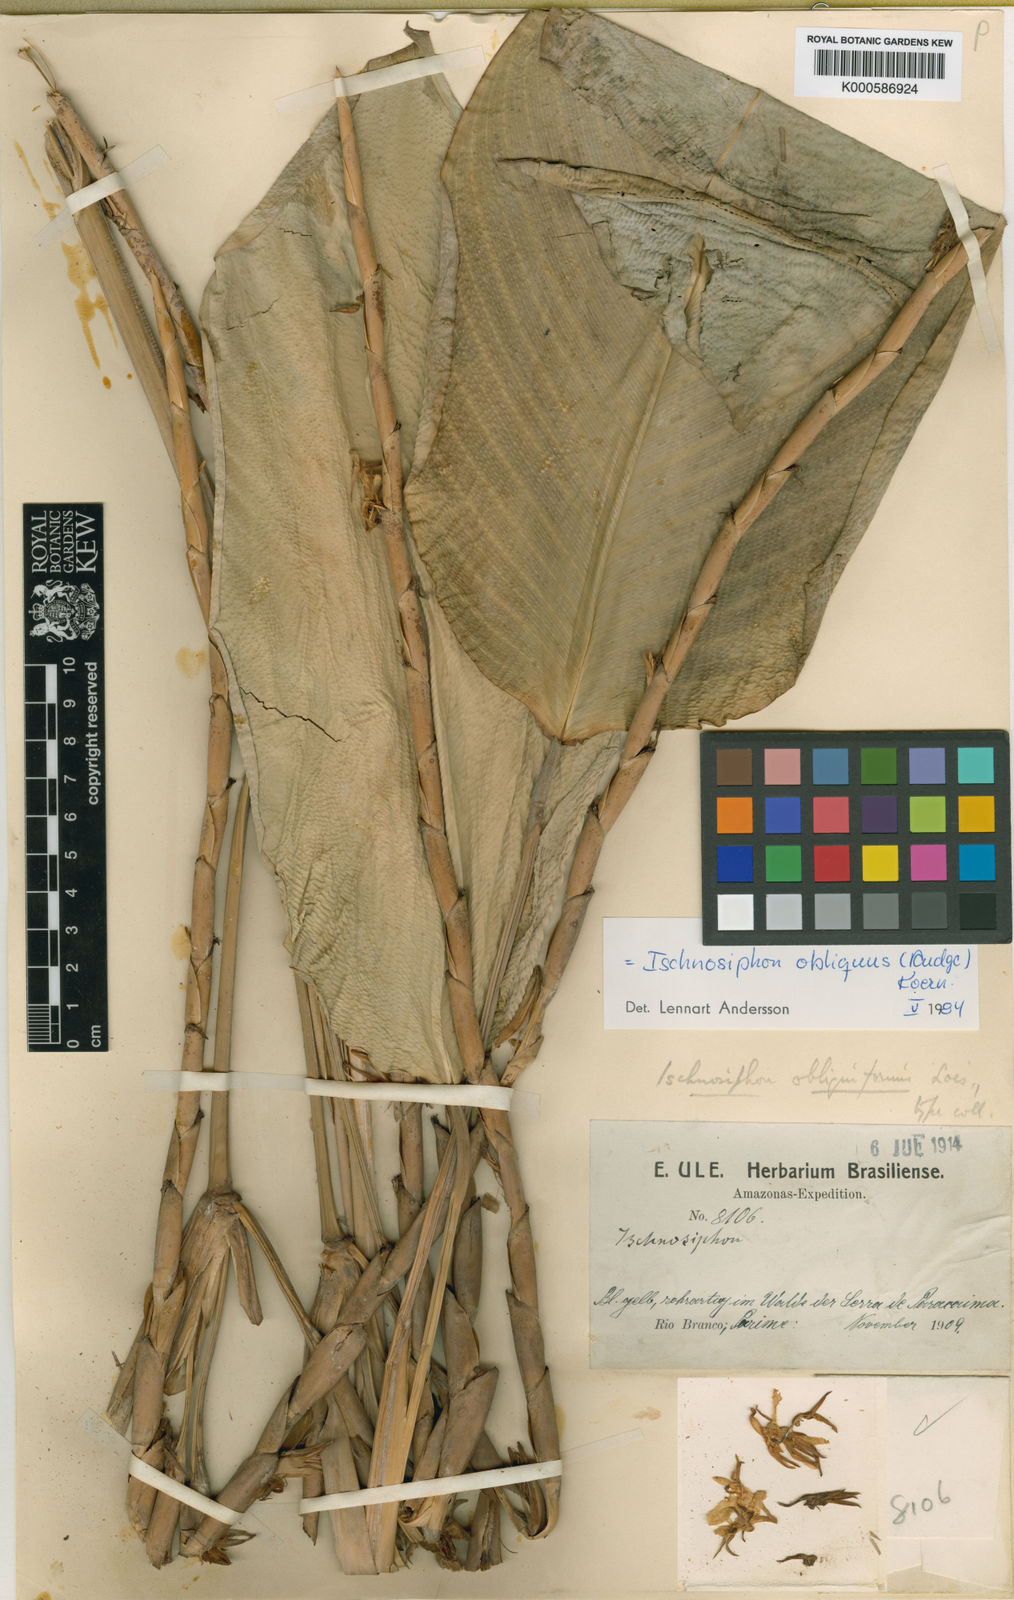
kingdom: Plantae
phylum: Tracheophyta
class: Liliopsida
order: Zingiberales
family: Marantaceae
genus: Ischnosiphon
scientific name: Ischnosiphon
